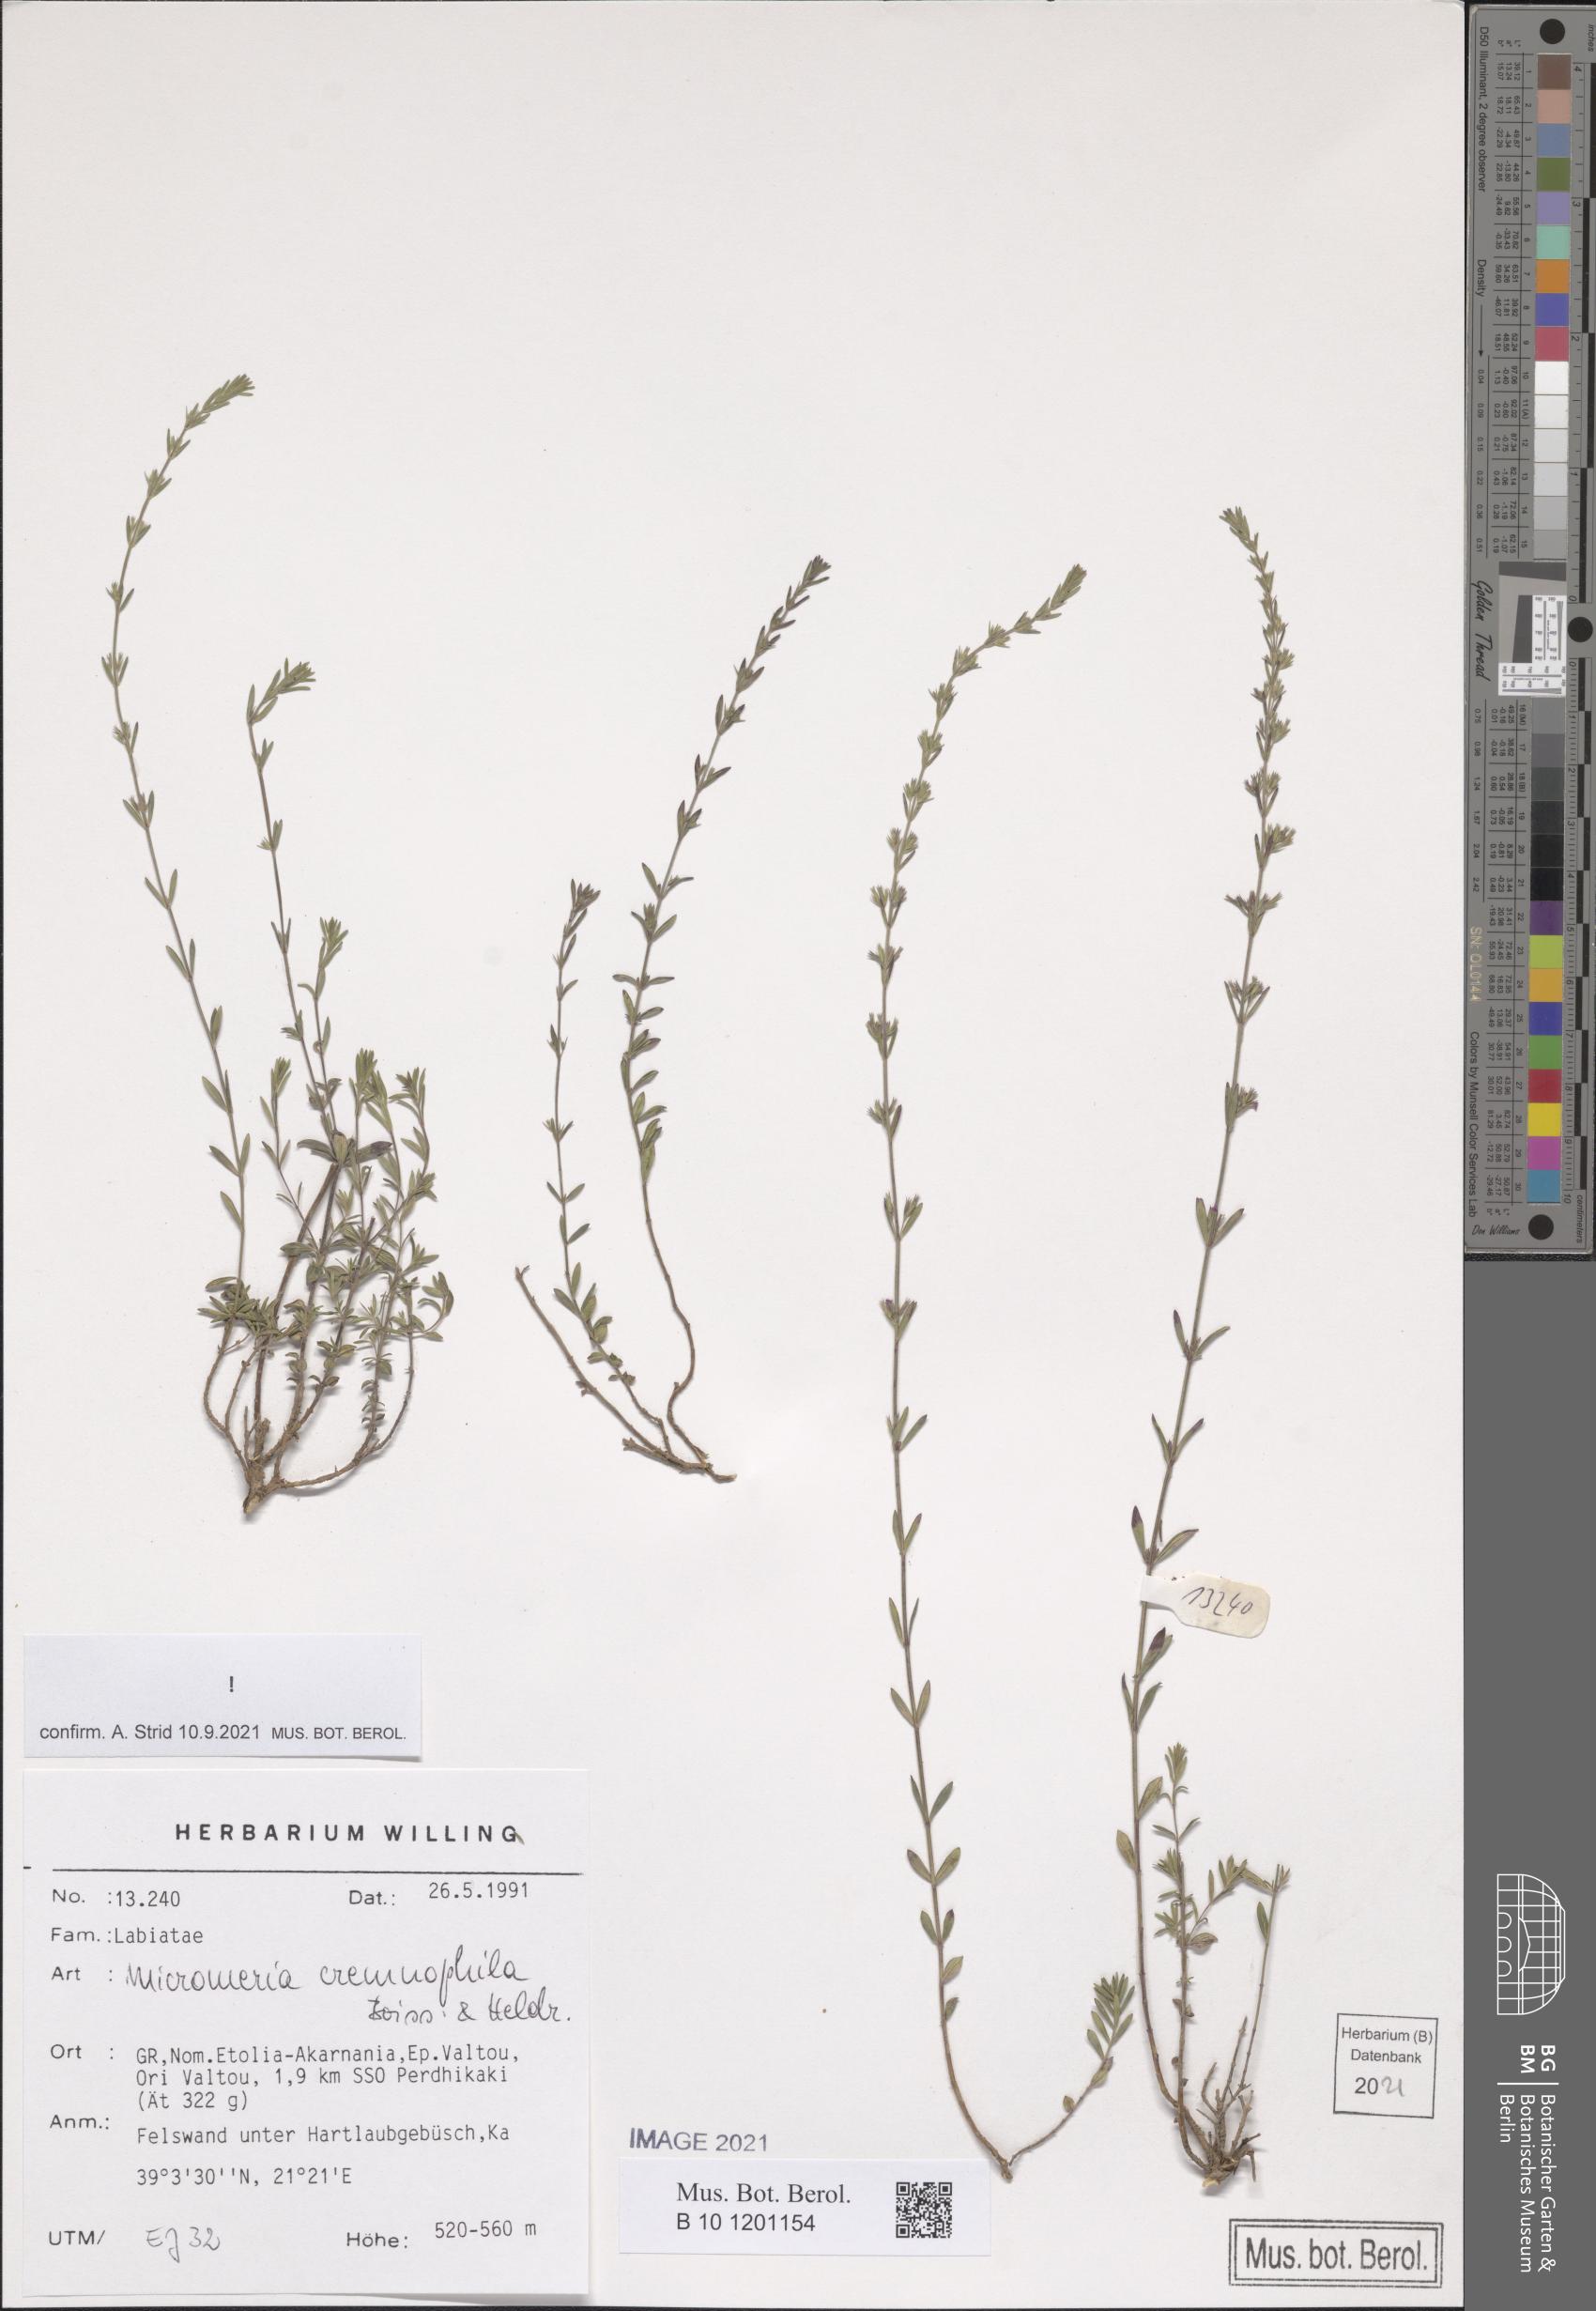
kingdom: Plantae
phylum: Tracheophyta
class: Magnoliopsida
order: Lamiales
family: Lamiaceae
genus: Micromeria
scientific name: Micromeria cremnophila
